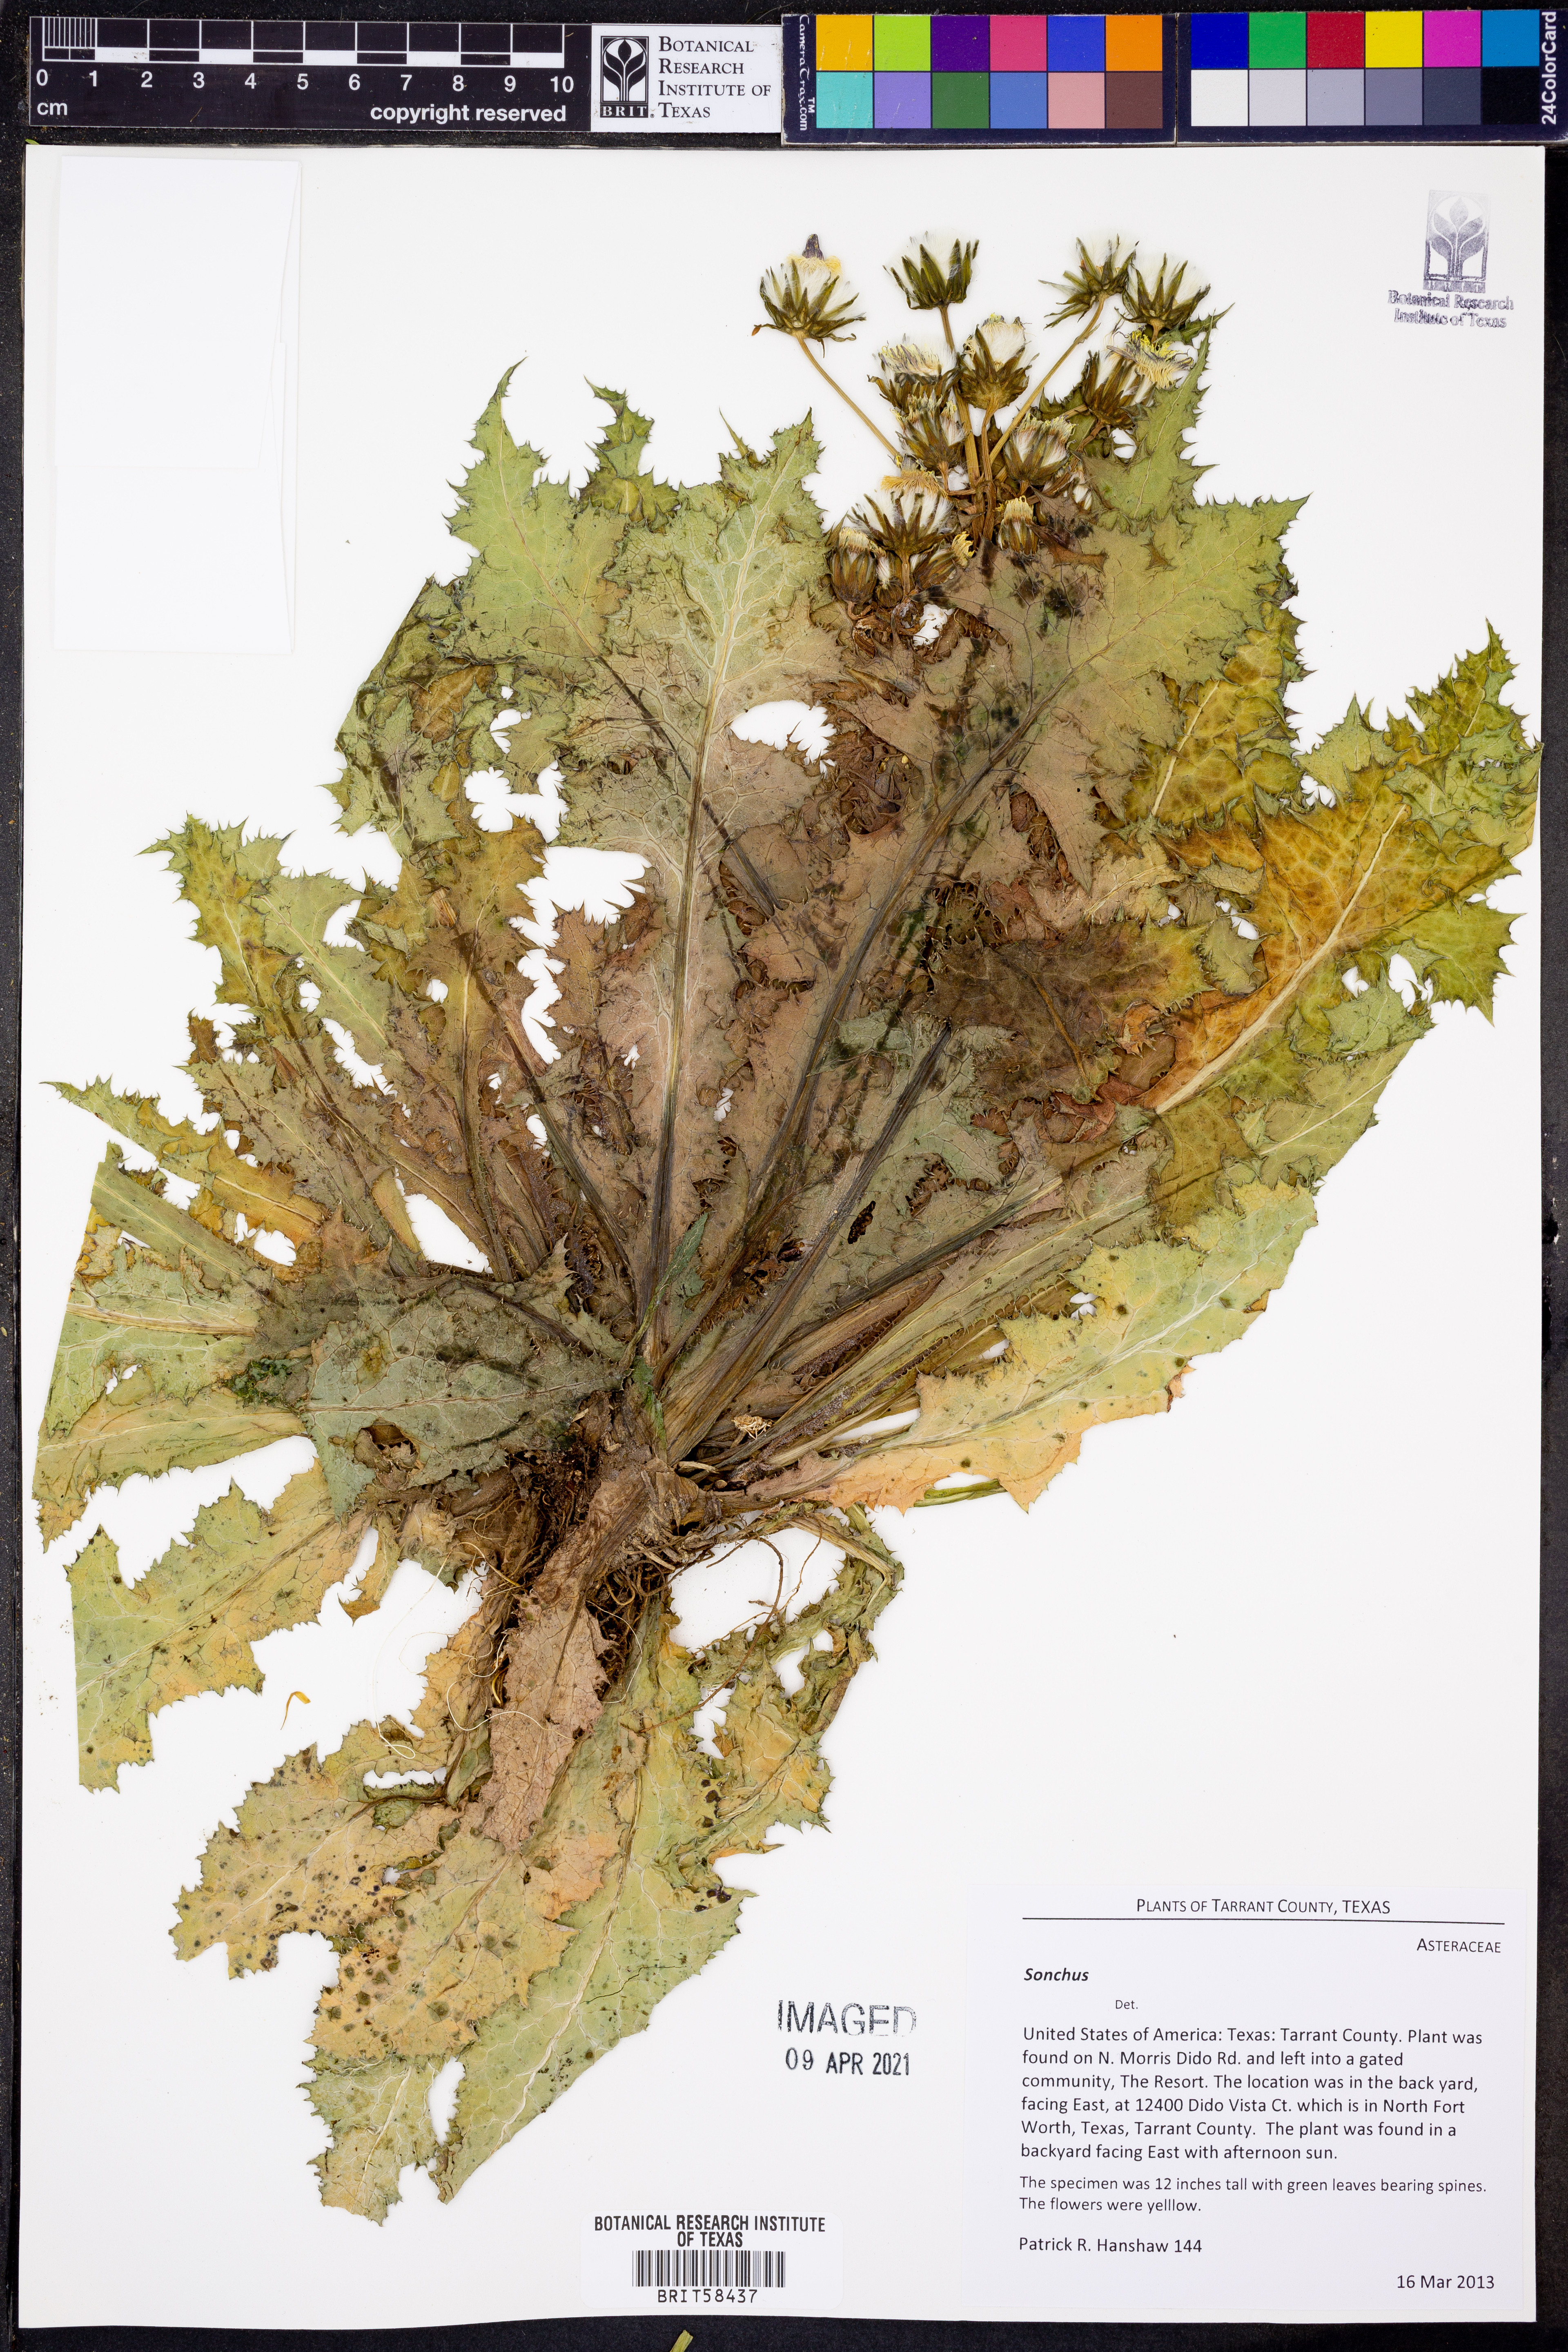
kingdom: Plantae
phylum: Tracheophyta
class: Magnoliopsida
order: Asterales
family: Asteraceae
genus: Sonchus
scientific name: Sonchus
